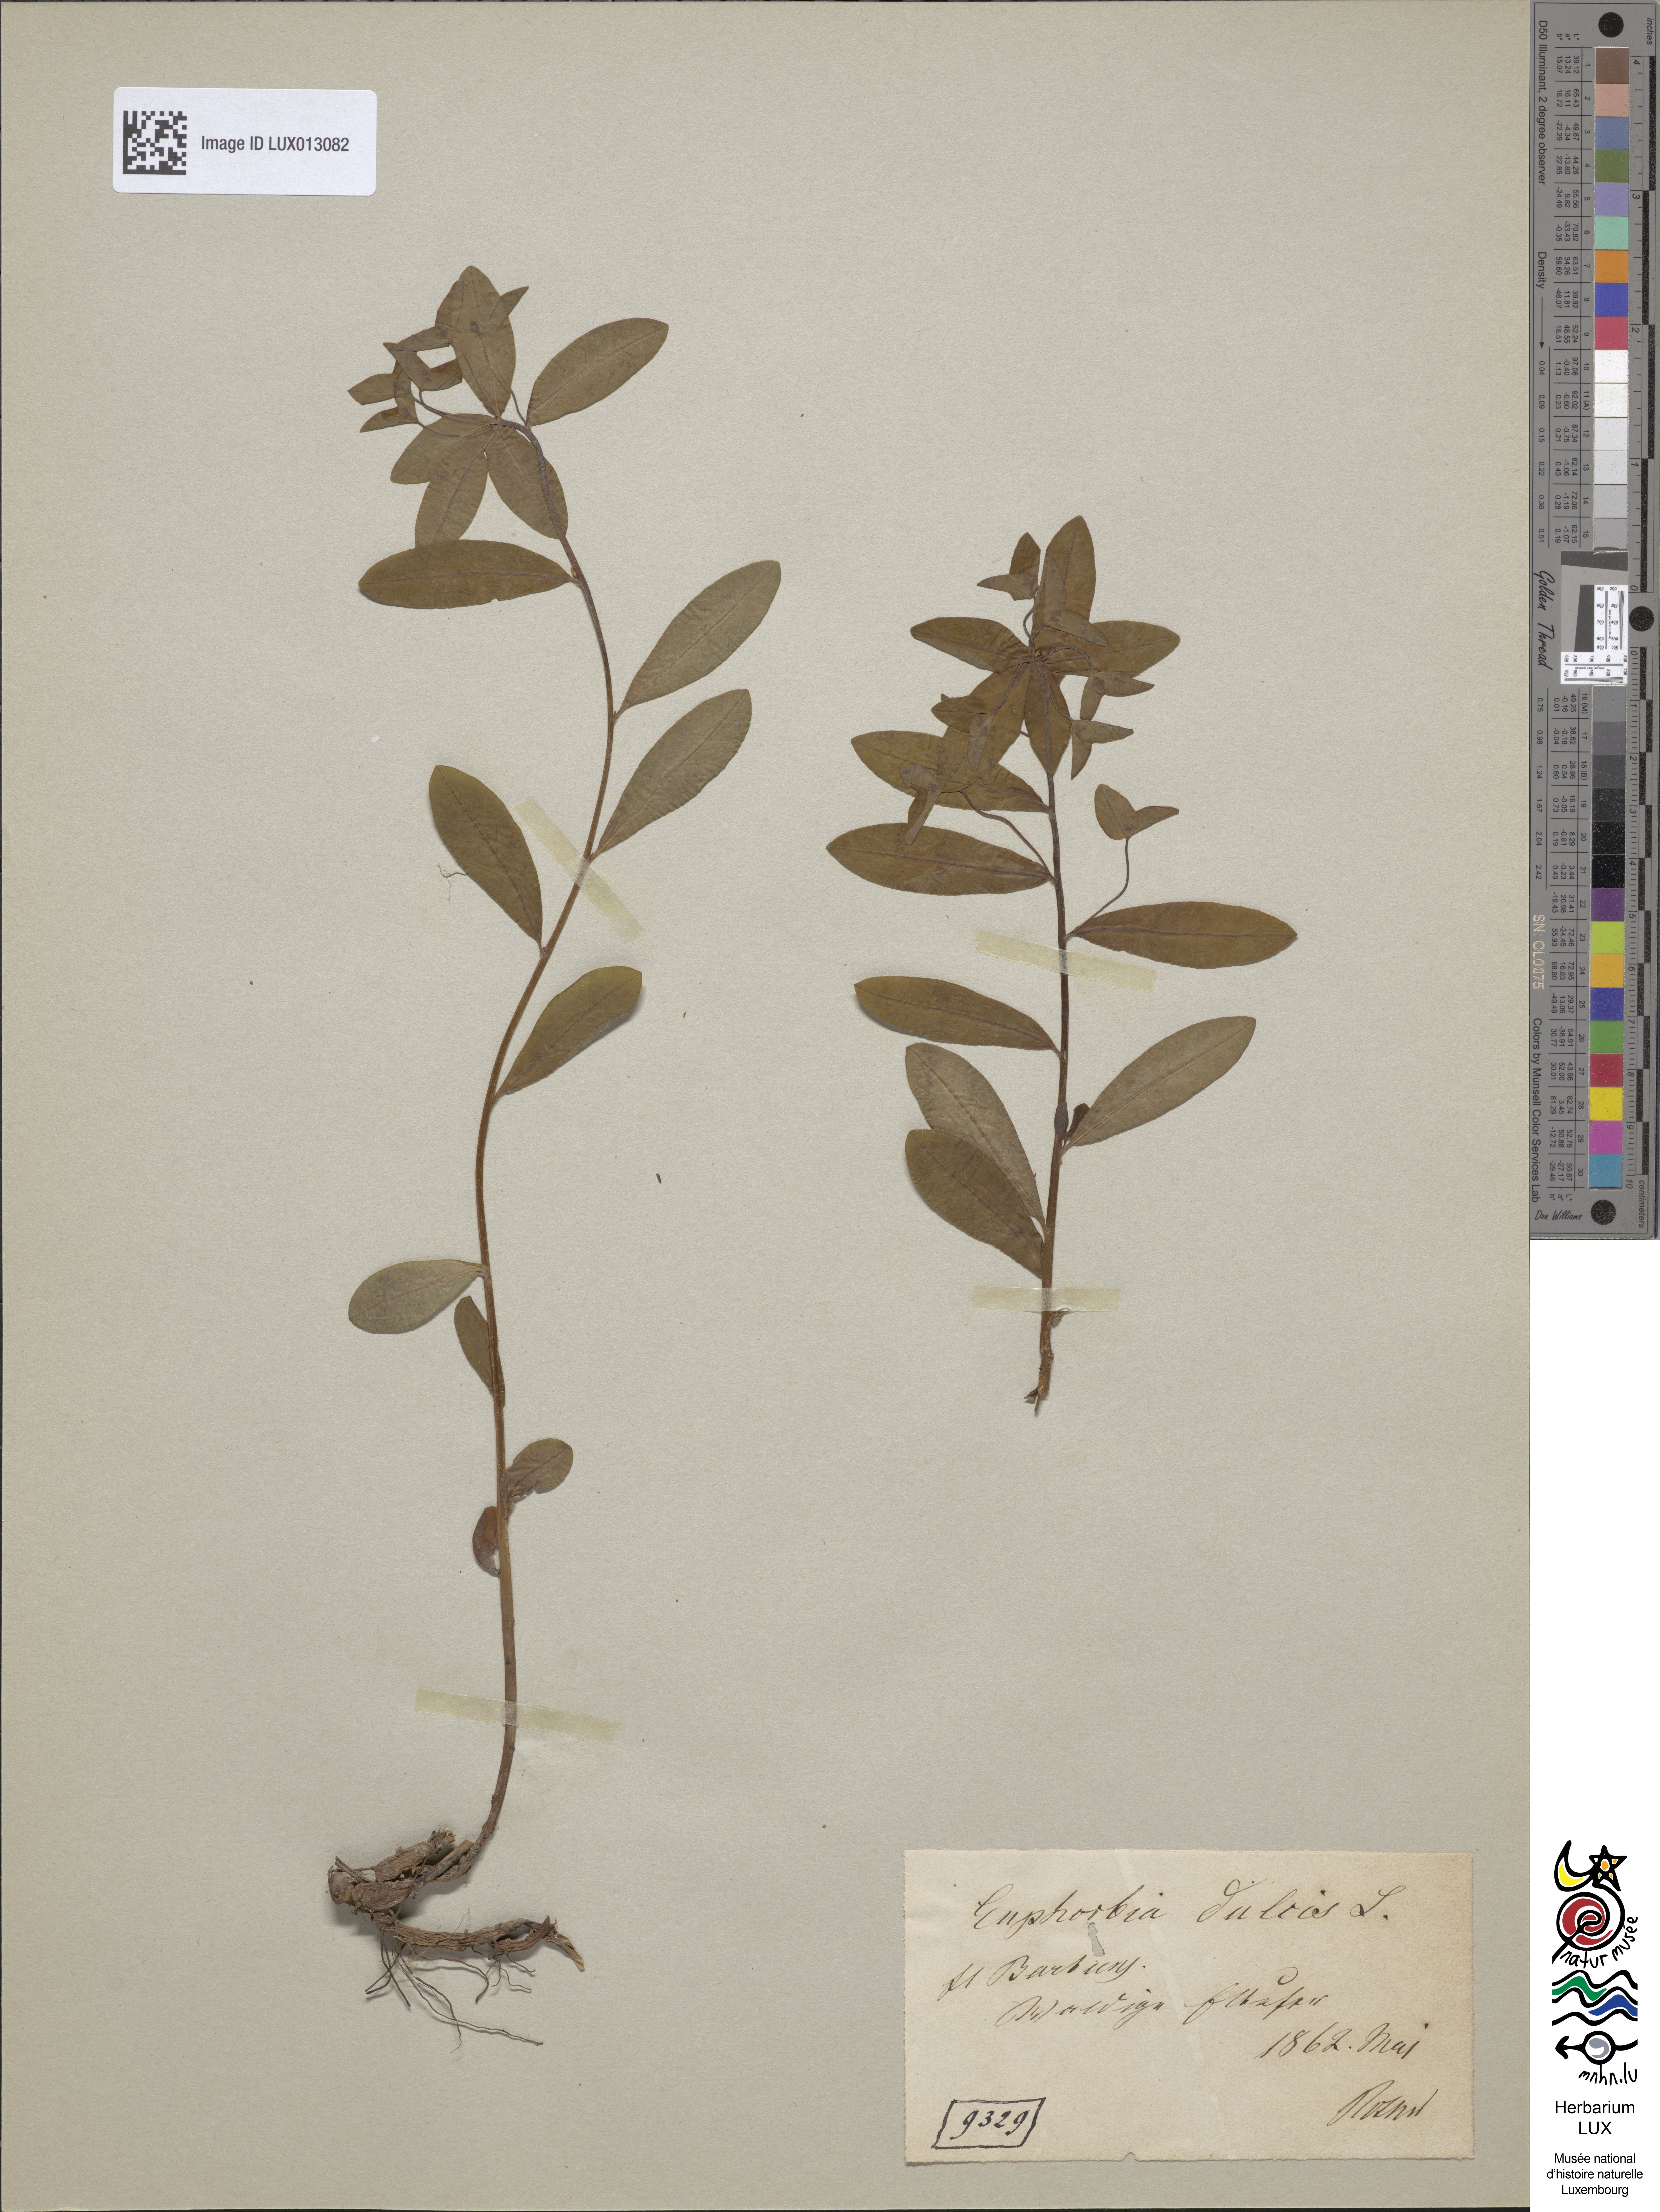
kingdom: Plantae
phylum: Tracheophyta
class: Magnoliopsida
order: Malpighiales
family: Euphorbiaceae
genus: Euphorbia
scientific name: Euphorbia dulcis
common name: Sweet spurge
